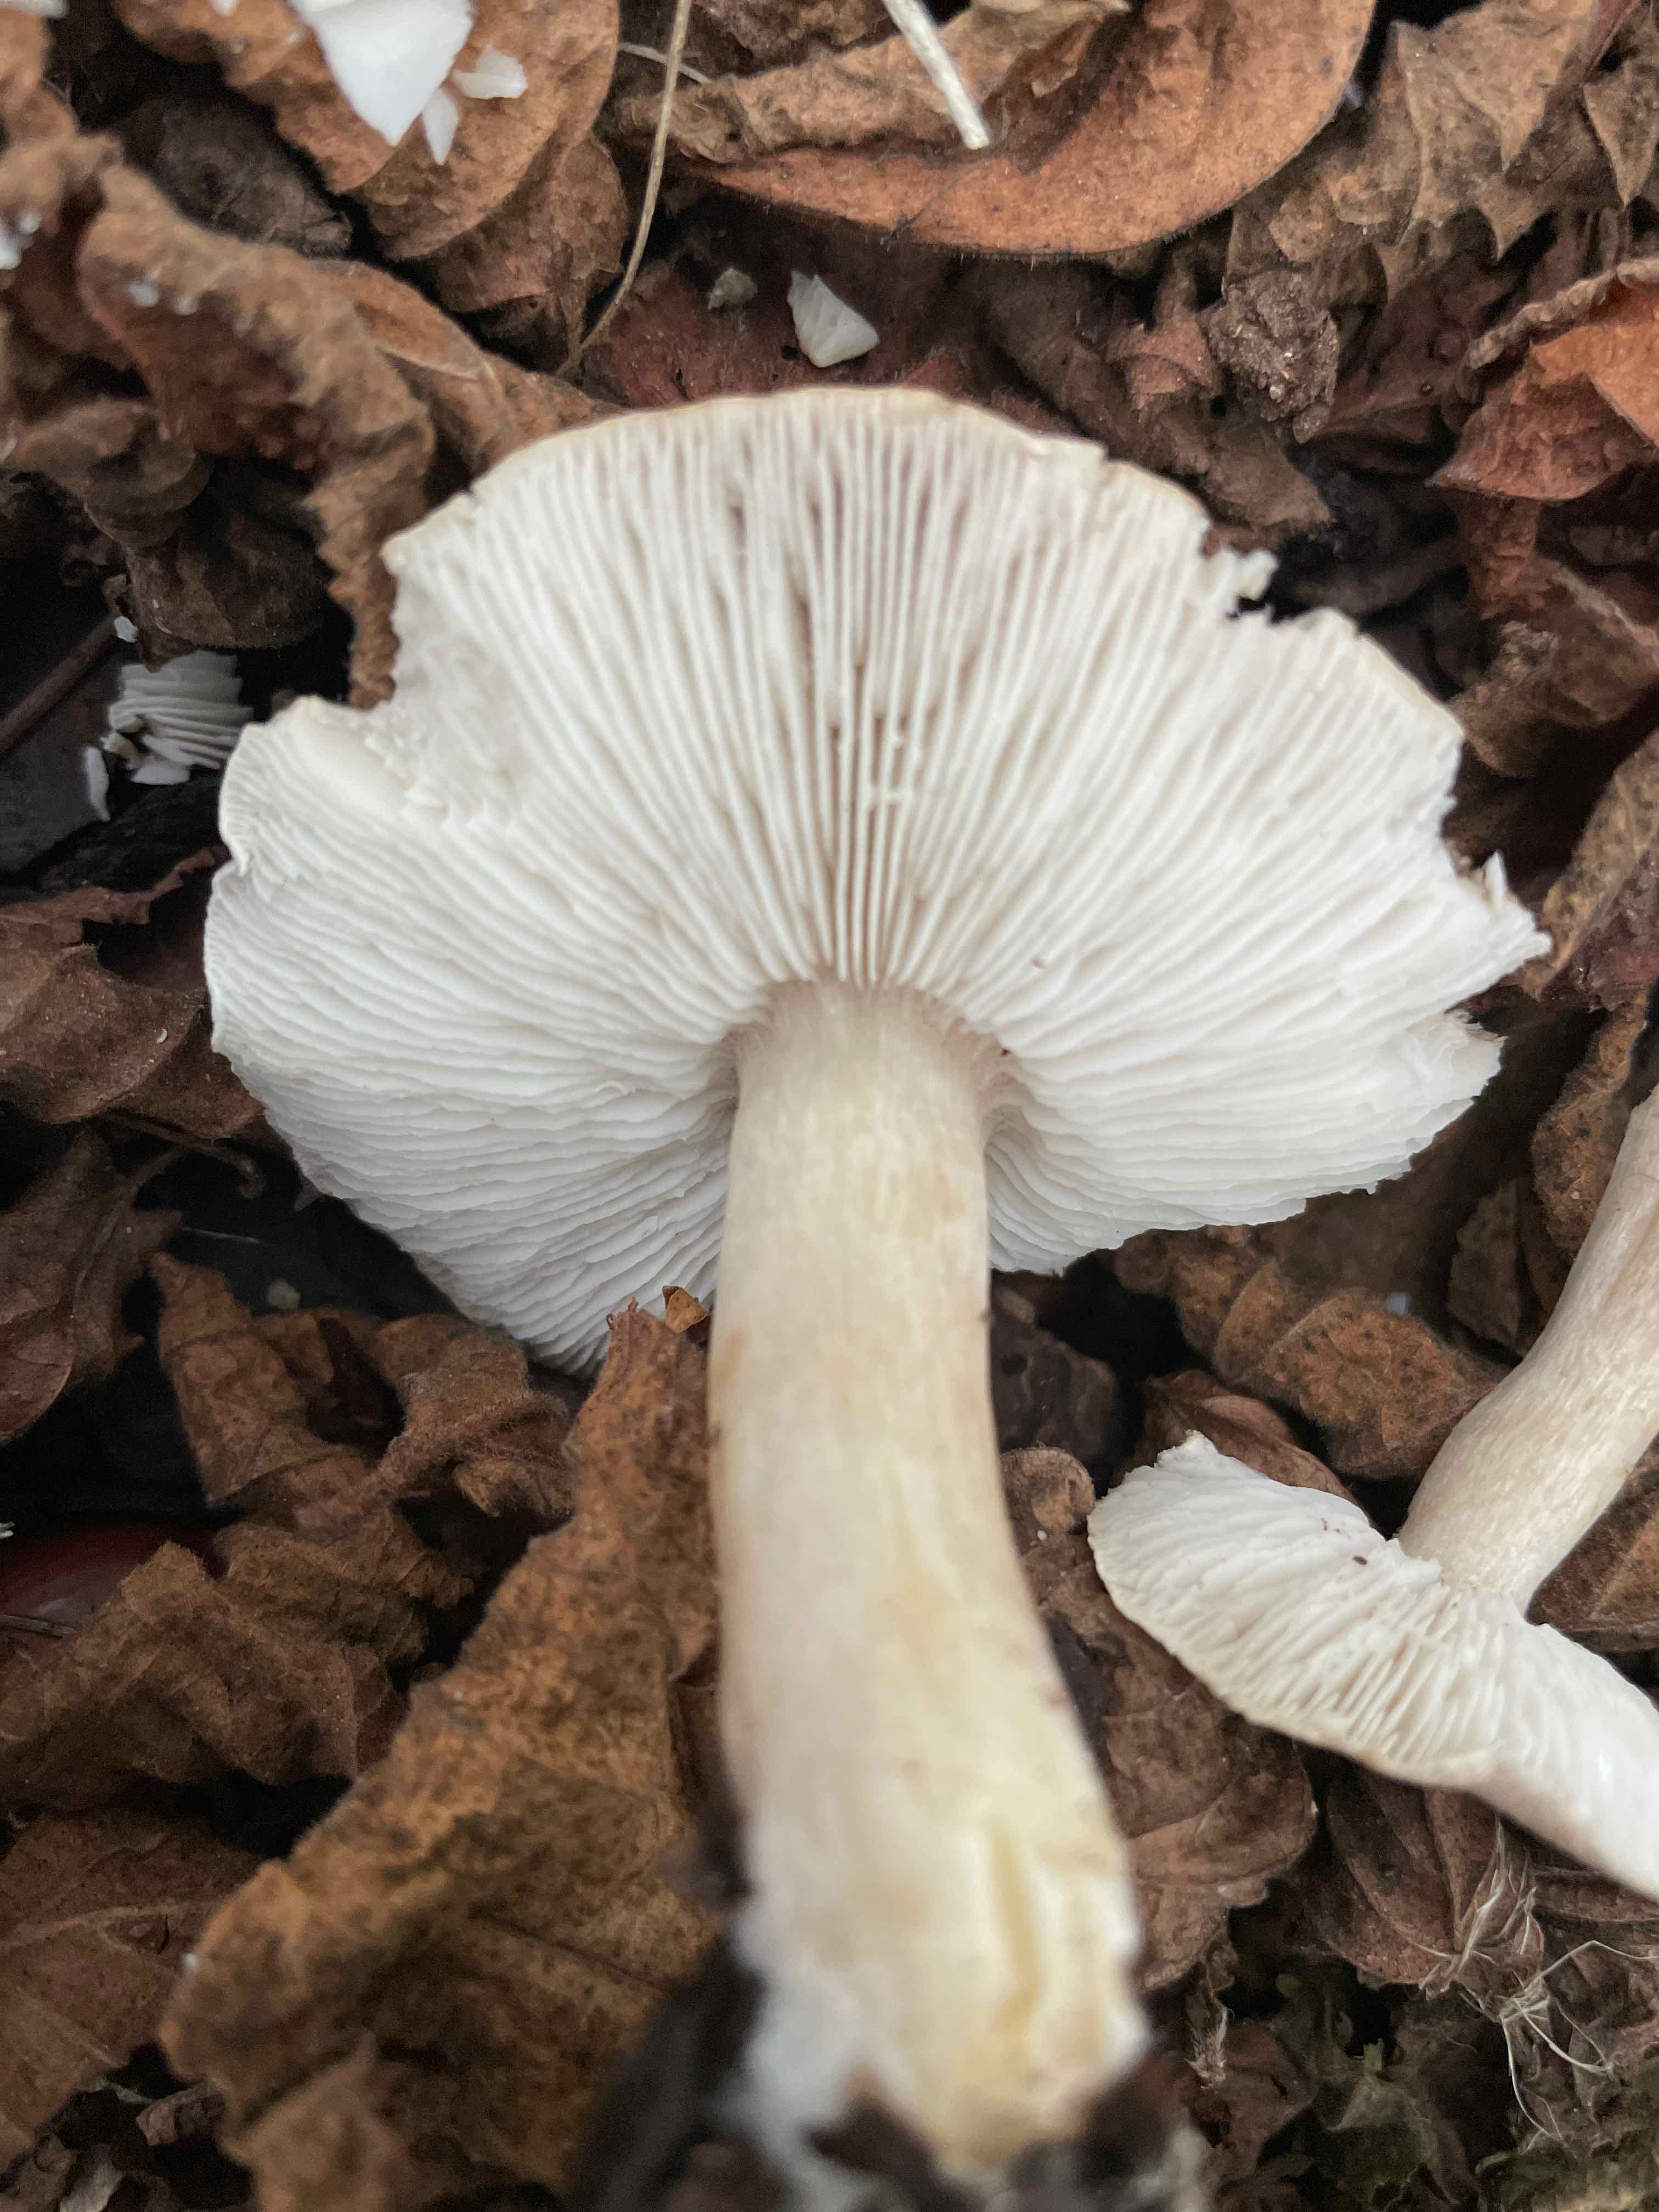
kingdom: Fungi
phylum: Basidiomycota
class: Agaricomycetes
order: Agaricales
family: Tricholomataceae
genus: Tricholoma
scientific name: Tricholoma scalpturatum
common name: gulplettet ridderhat
